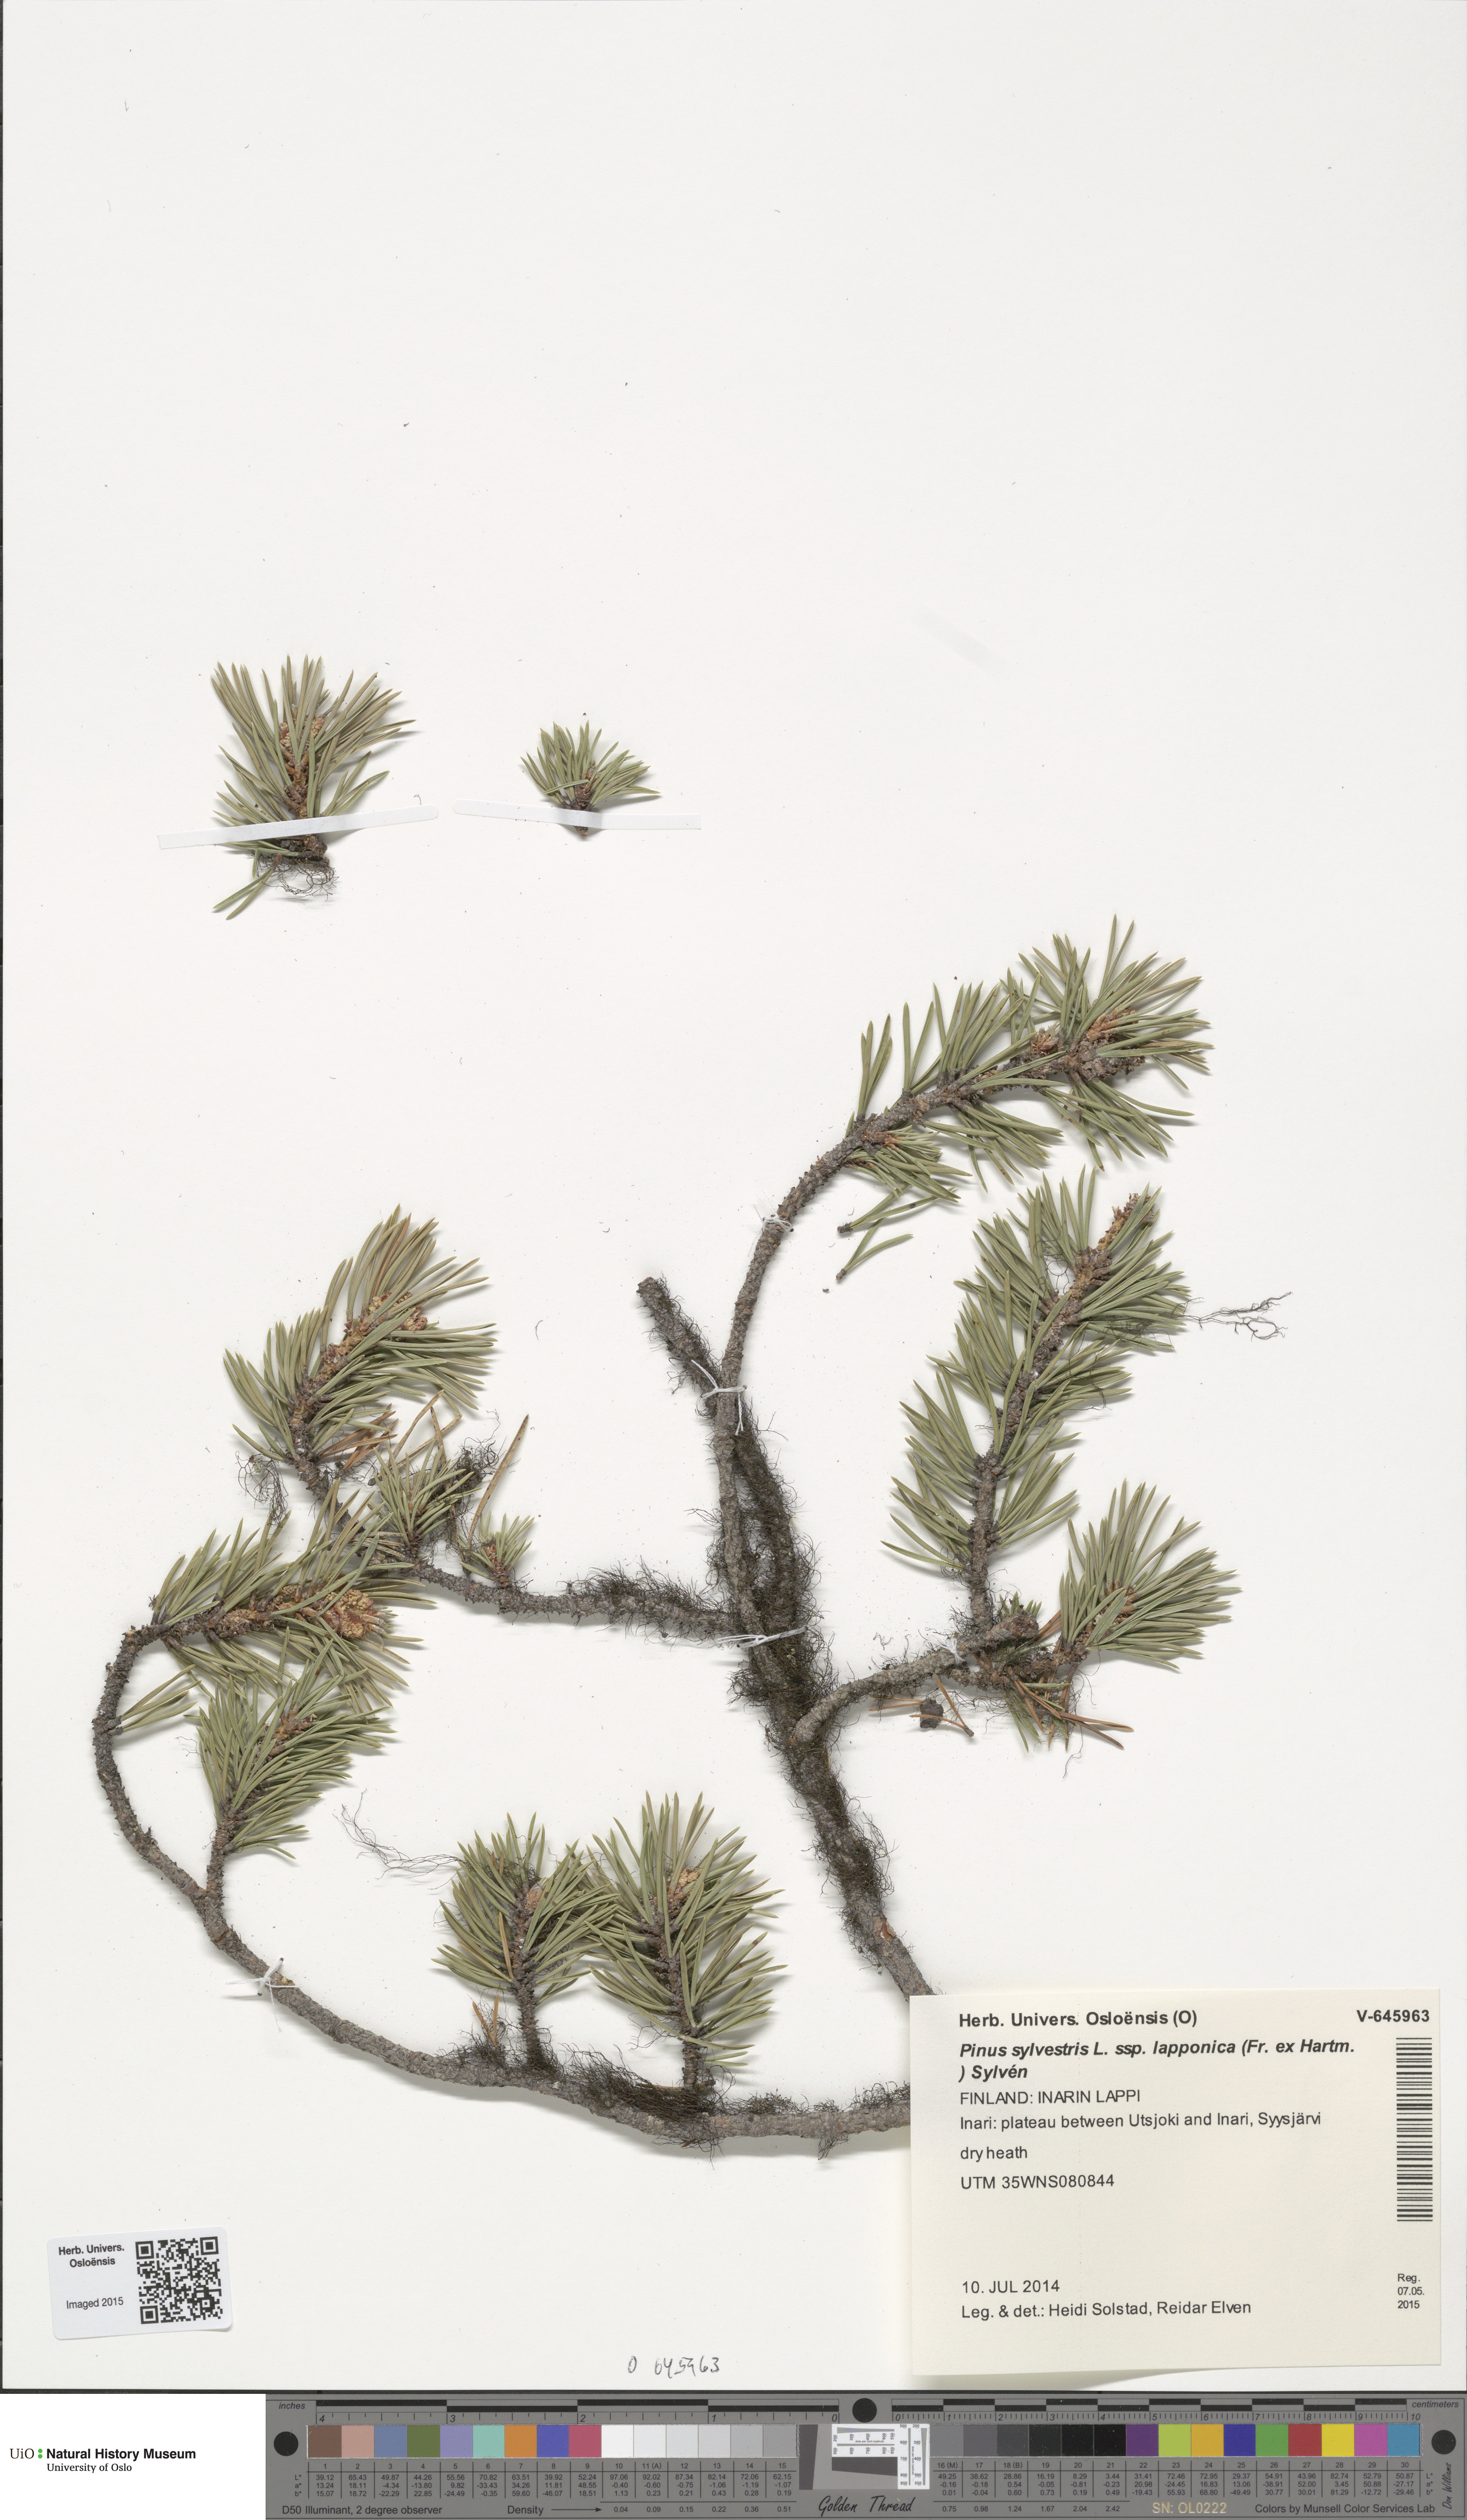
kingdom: Plantae
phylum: Tracheophyta
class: Pinopsida
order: Pinales
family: Pinaceae
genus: Pinus
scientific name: Pinus sylvestris
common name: Scots pine
